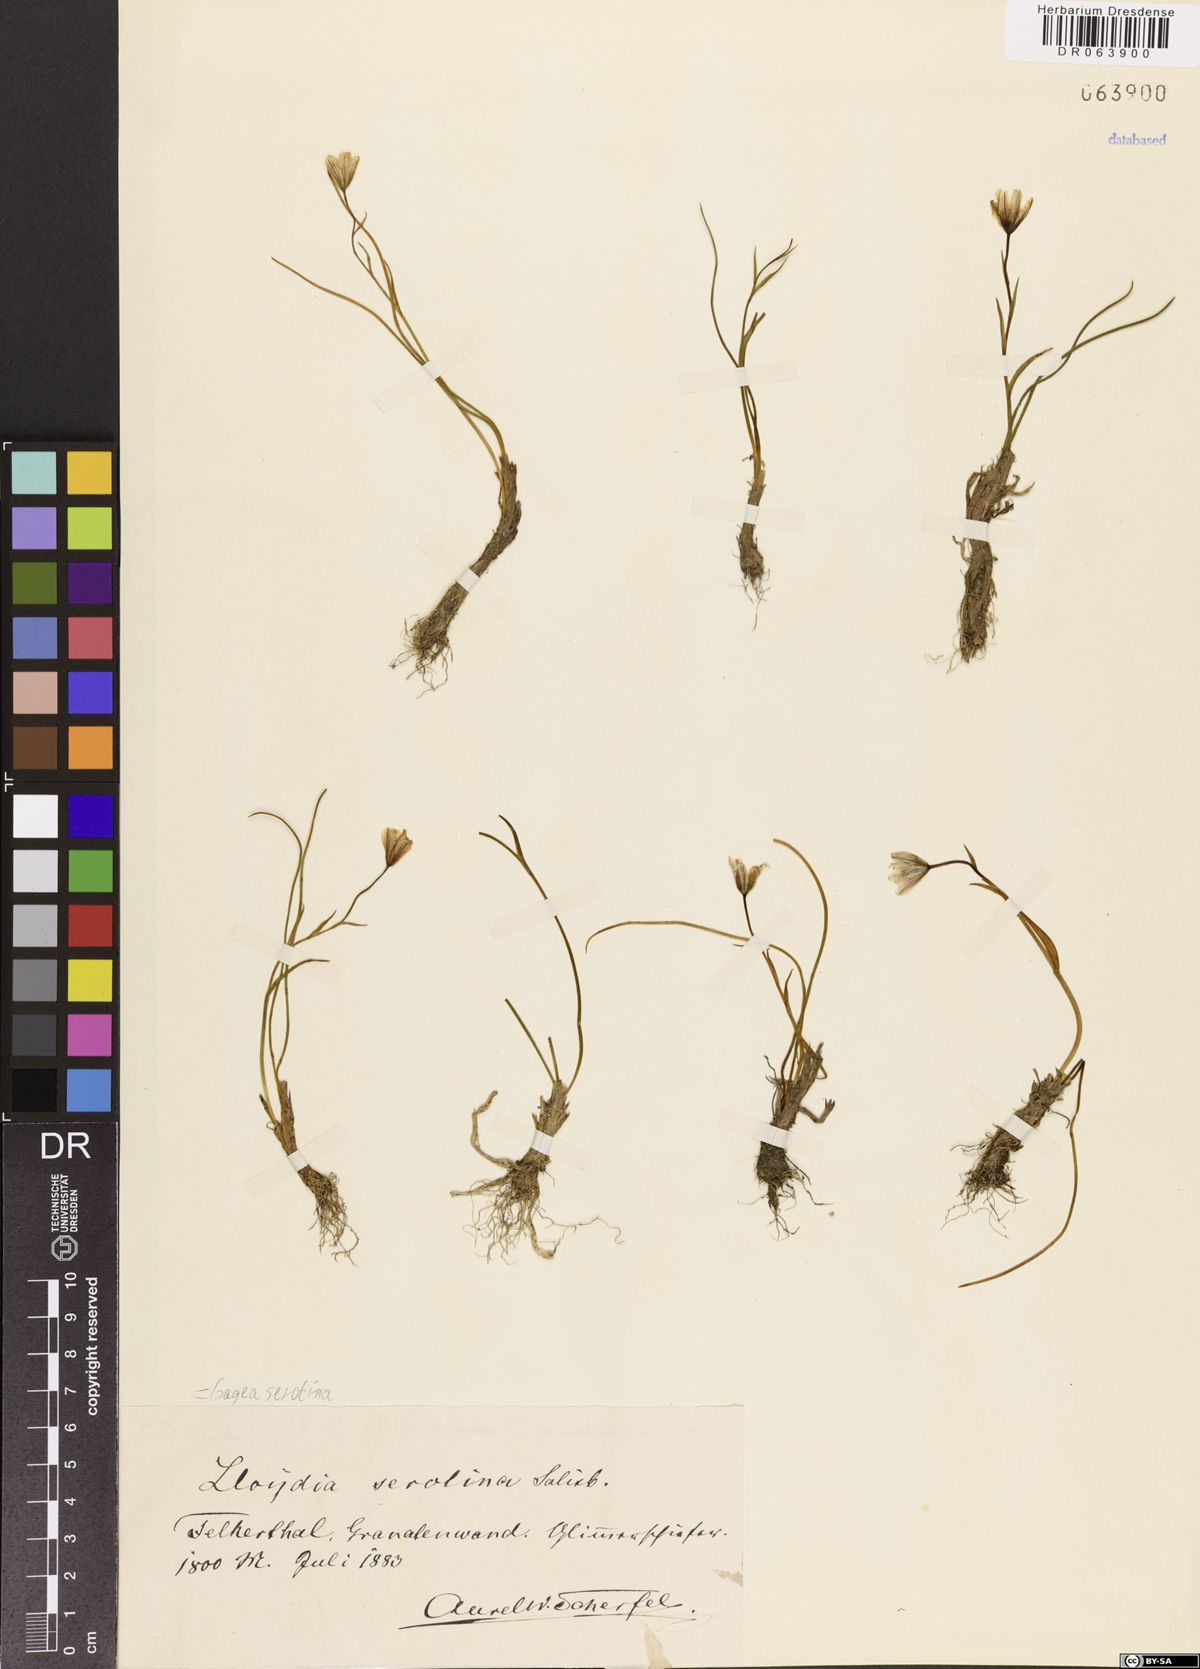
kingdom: Plantae
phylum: Tracheophyta
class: Liliopsida
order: Liliales
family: Liliaceae
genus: Gagea
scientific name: Gagea serotina
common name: Snowdon lily
